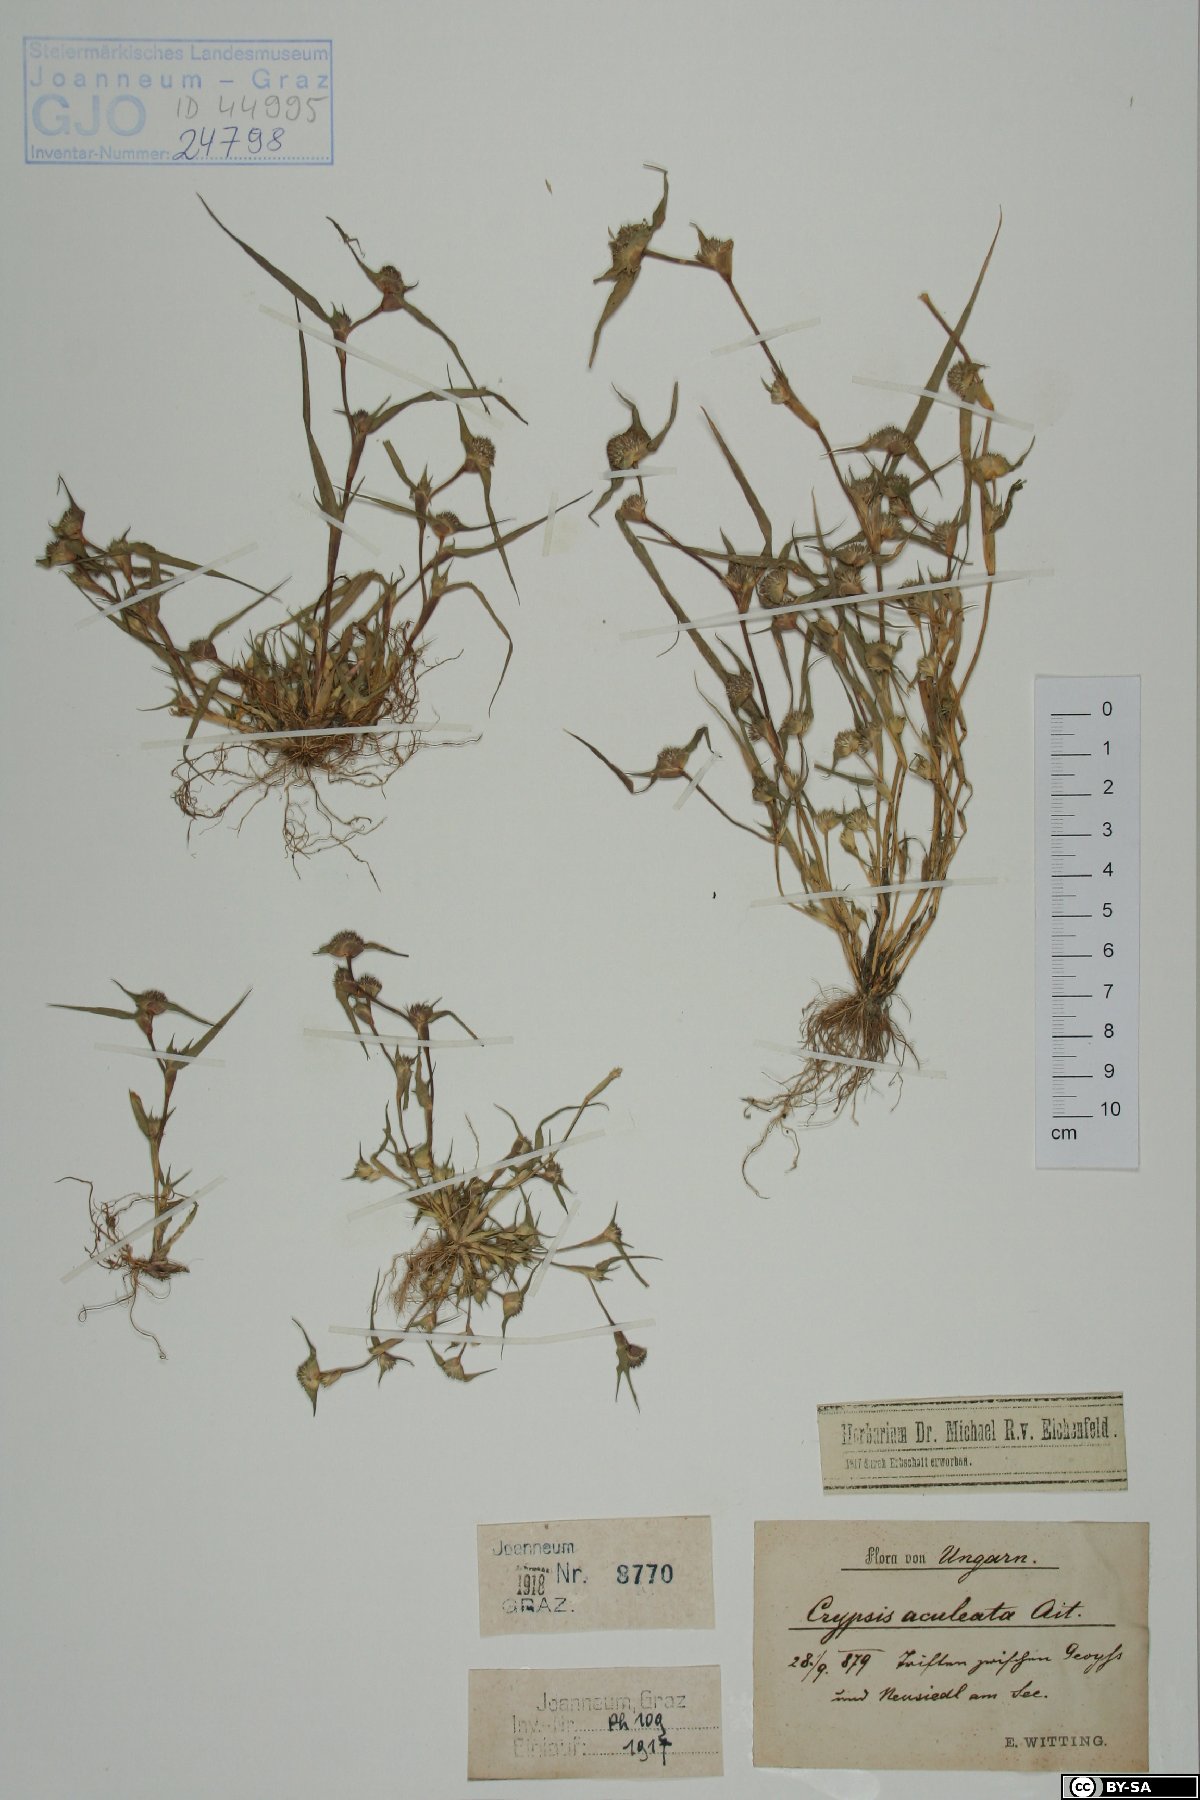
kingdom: Plantae
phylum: Tracheophyta
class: Liliopsida
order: Poales
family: Poaceae
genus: Sporobolus
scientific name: Sporobolus aculeatus
